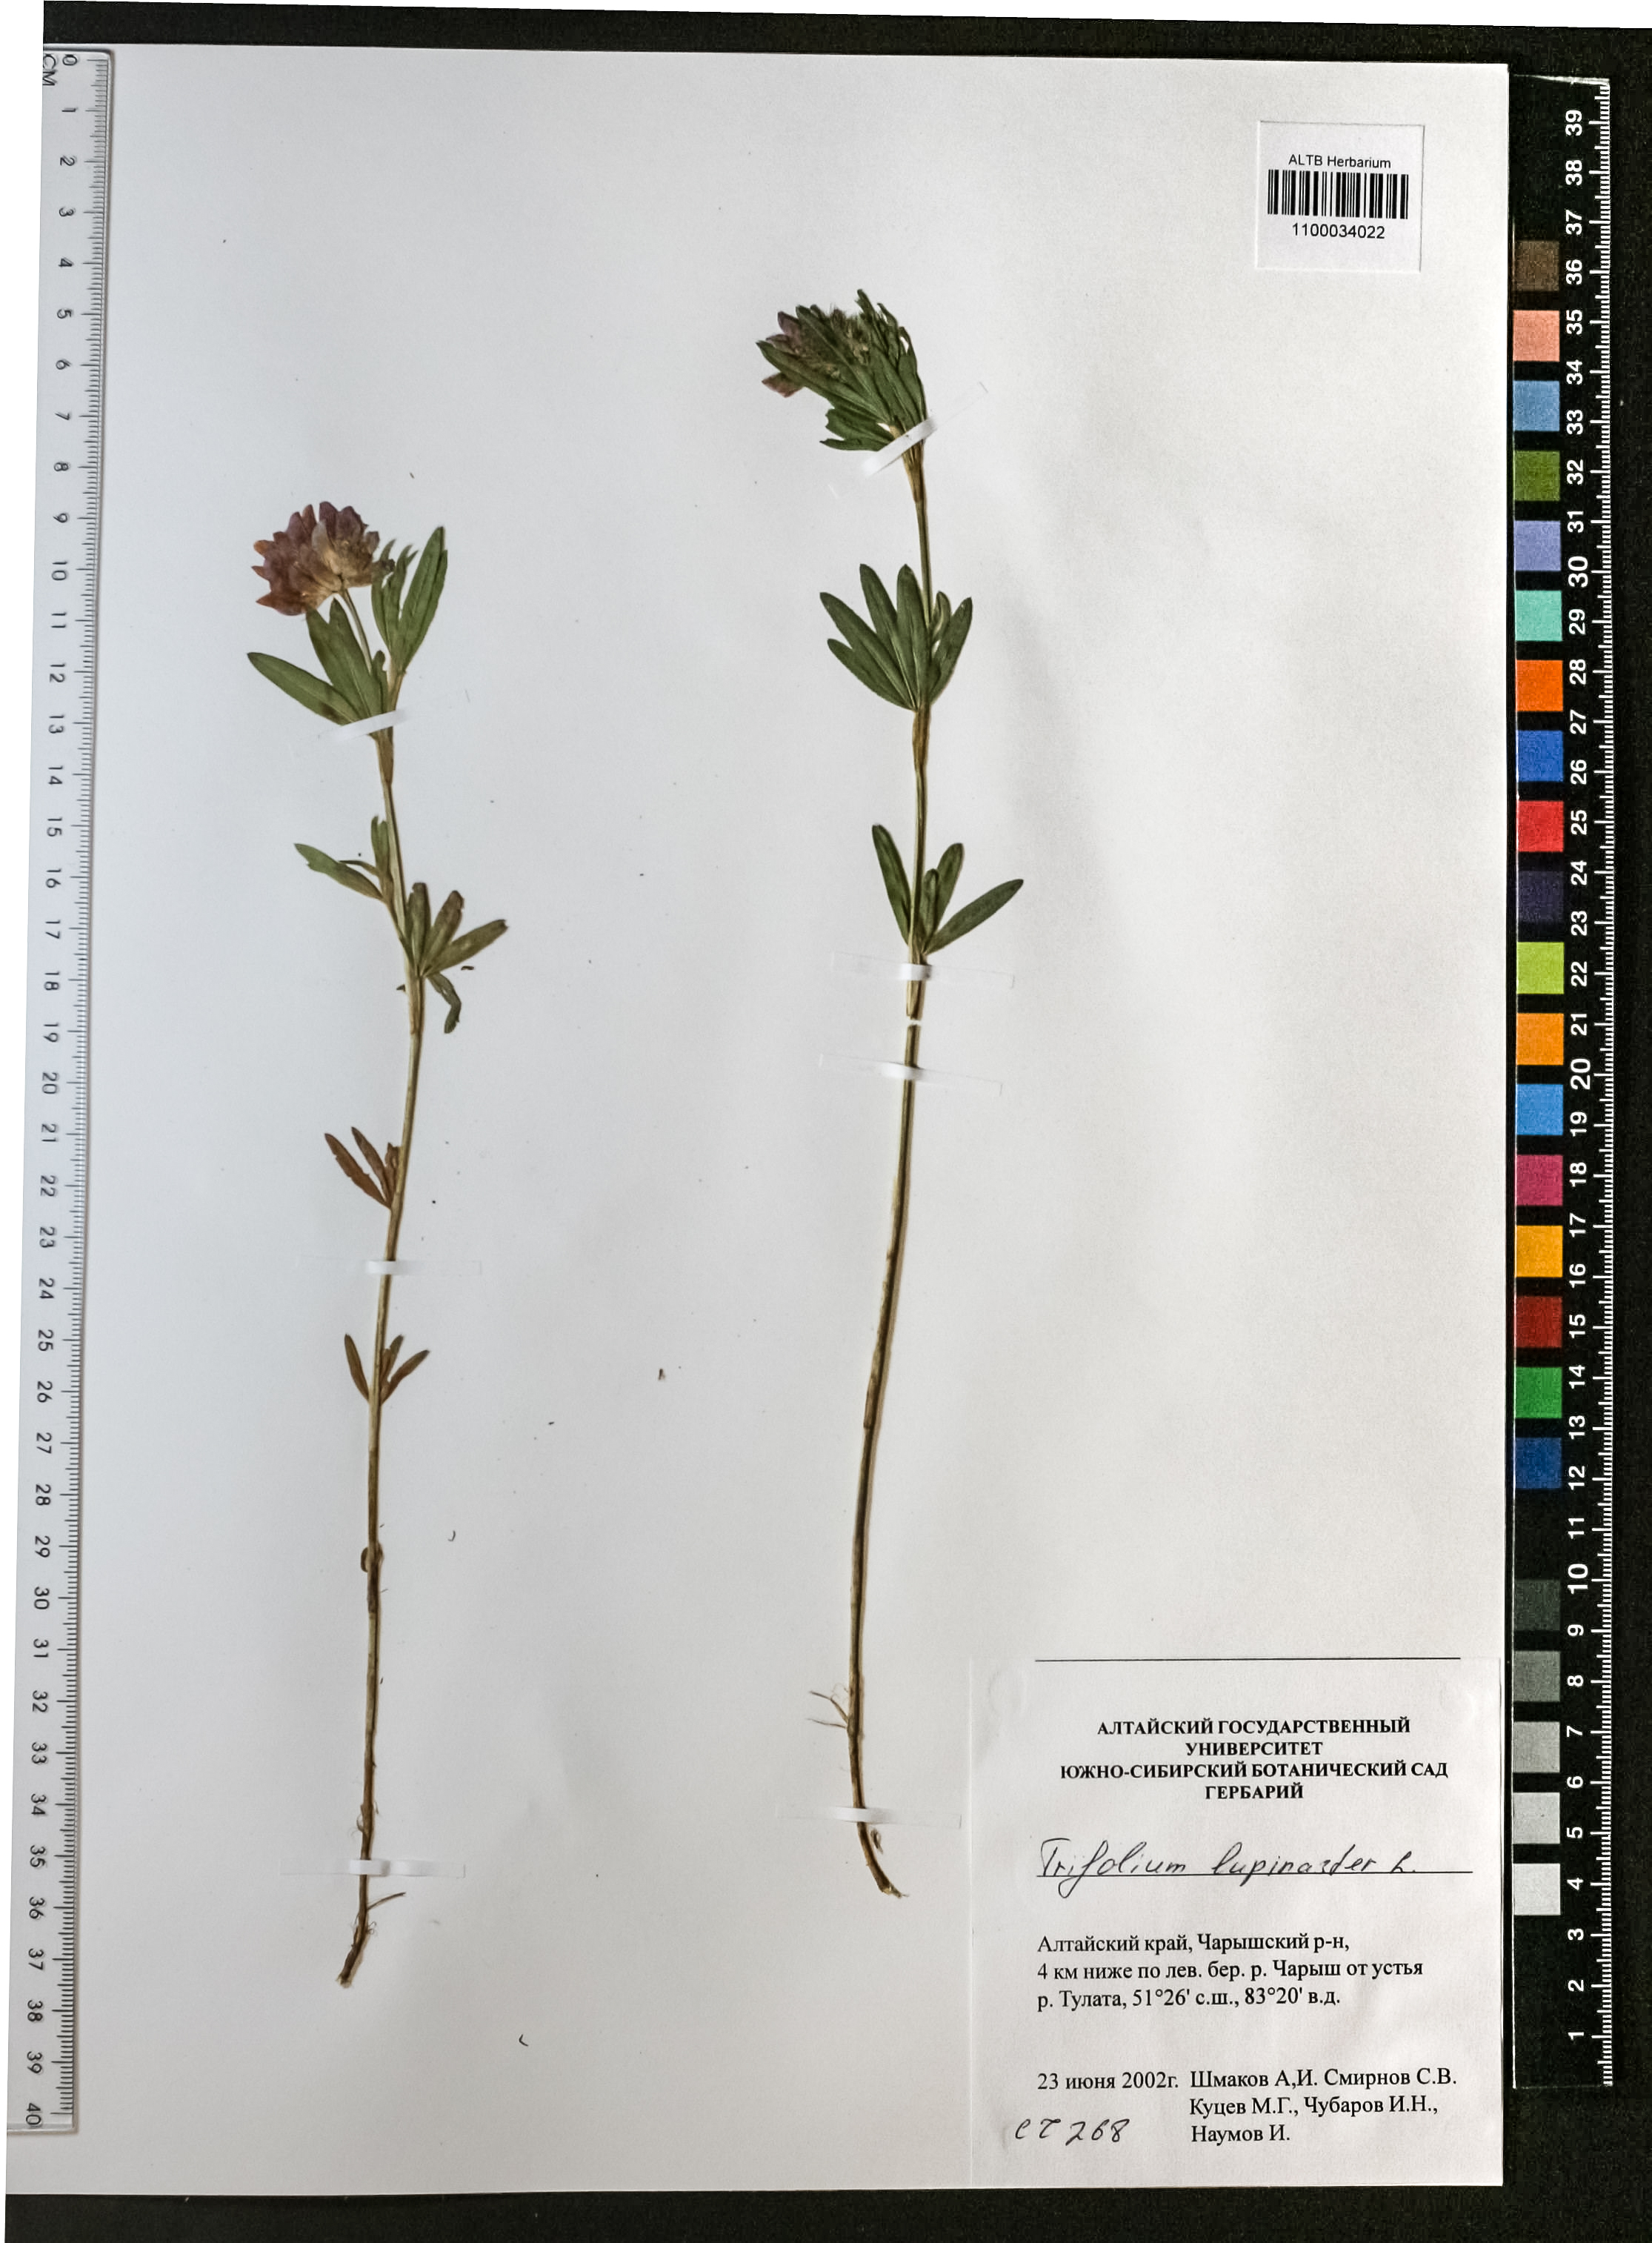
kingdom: Plantae
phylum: Tracheophyta
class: Magnoliopsida
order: Fabales
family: Fabaceae
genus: Trifolium
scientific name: Trifolium lupinaster
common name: Lupine clover
